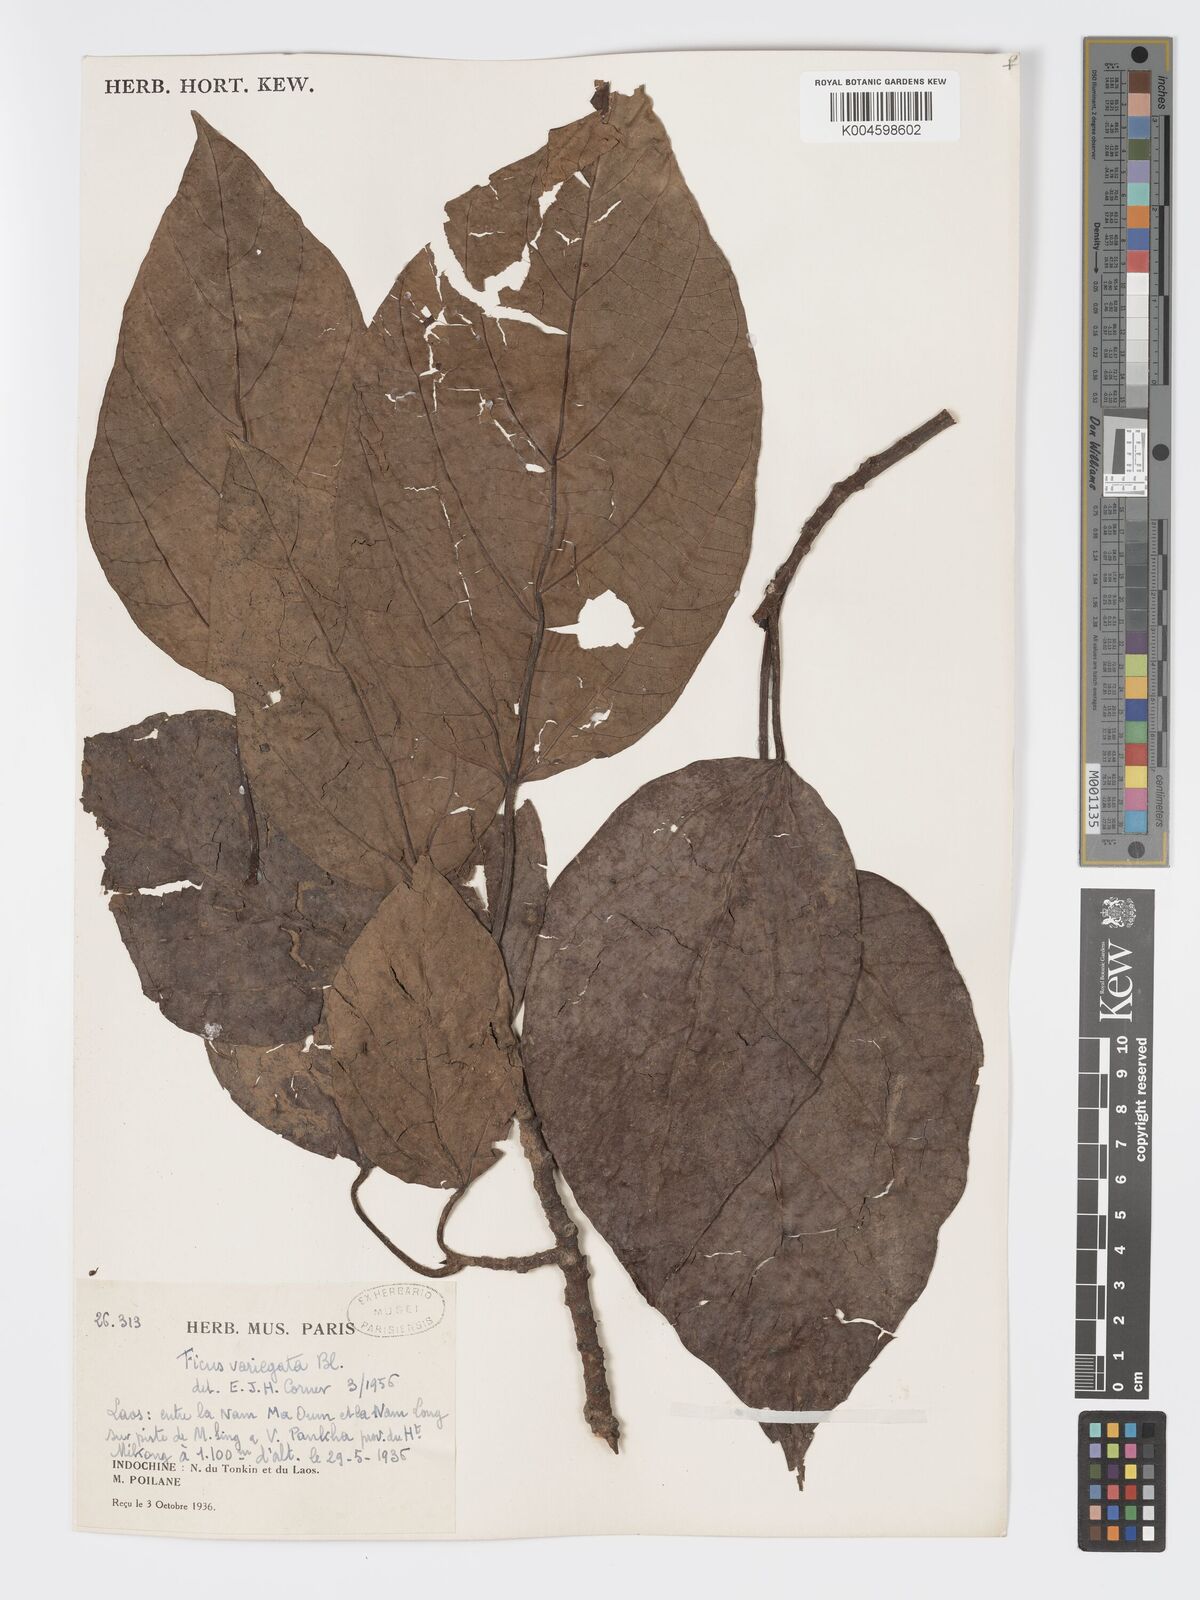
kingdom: Plantae
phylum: Tracheophyta
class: Magnoliopsida
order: Rosales
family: Moraceae
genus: Ficus
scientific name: Ficus variegata
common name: Variegated fig
